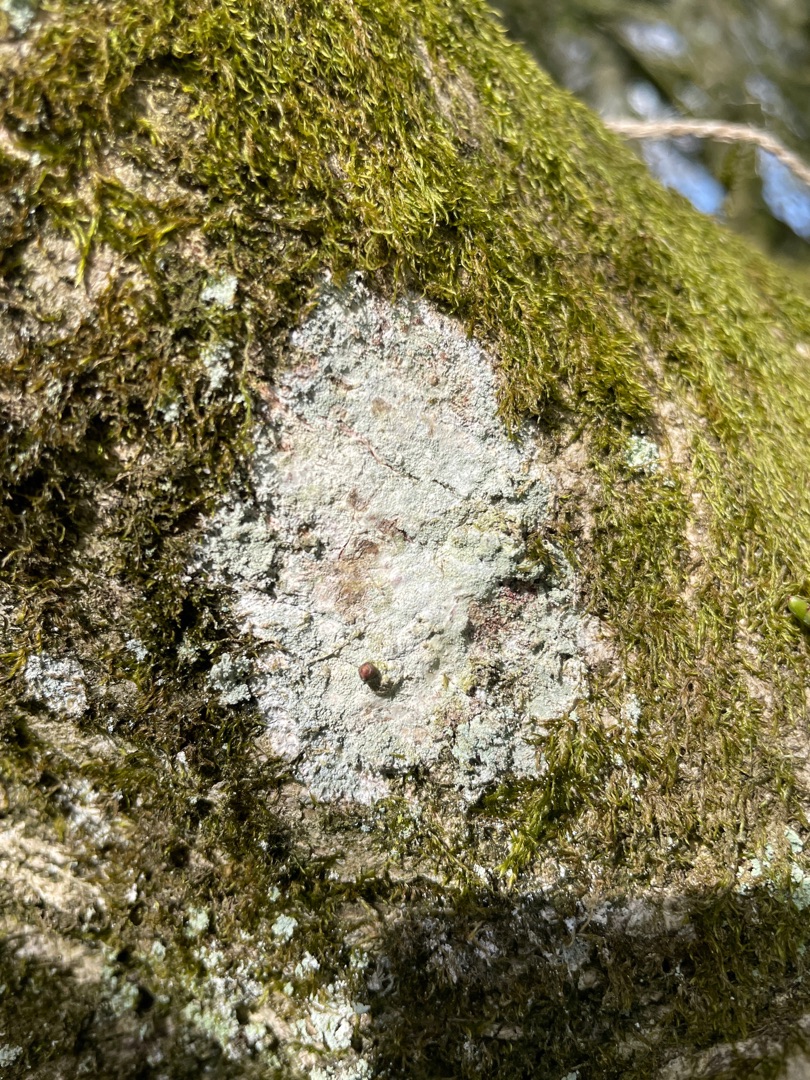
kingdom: Fungi
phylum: Ascomycota
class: Lecanoromycetes
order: Ostropales
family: Phlyctidaceae
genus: Phlyctis
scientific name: Phlyctis argena
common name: Almindelig sølvlav
